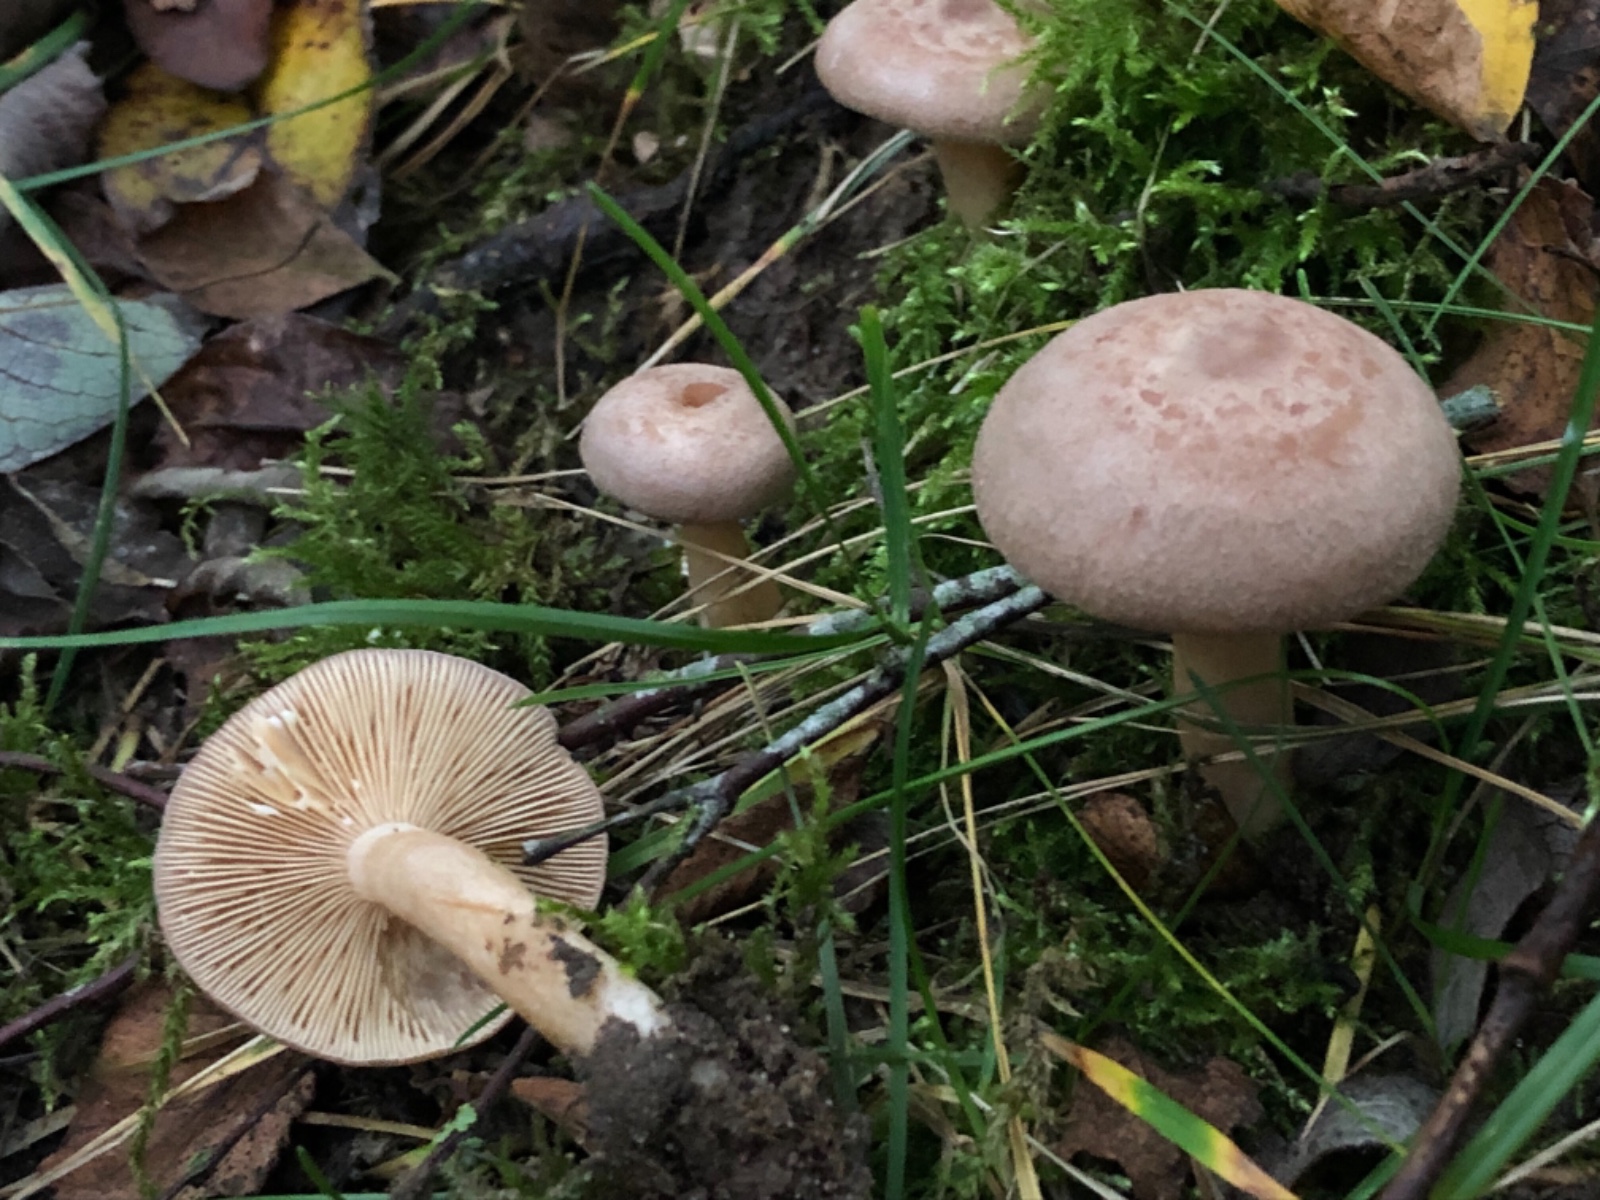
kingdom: Fungi
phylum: Basidiomycota
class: Agaricomycetes
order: Russulales
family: Russulaceae
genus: Lactarius
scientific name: Lactarius glyciosmus
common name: kokos-mælkehat
